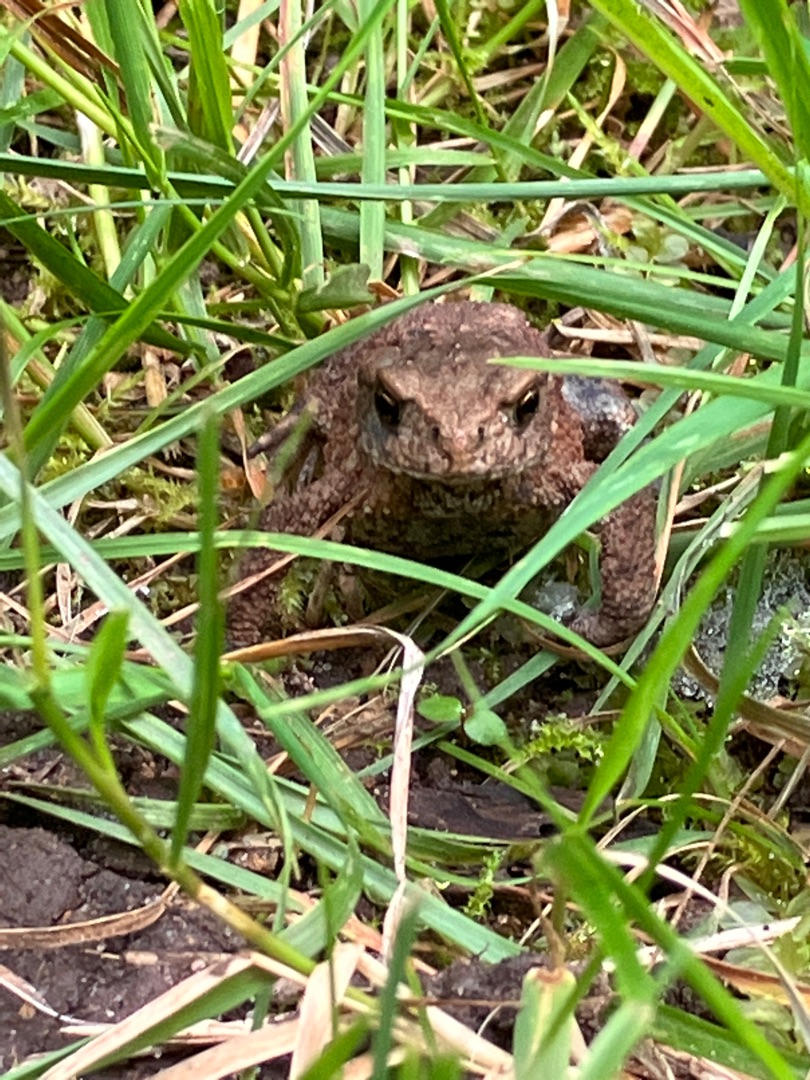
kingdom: Animalia
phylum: Chordata
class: Amphibia
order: Anura
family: Bufonidae
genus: Bufo
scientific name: Bufo bufo
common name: Skrubtudse
